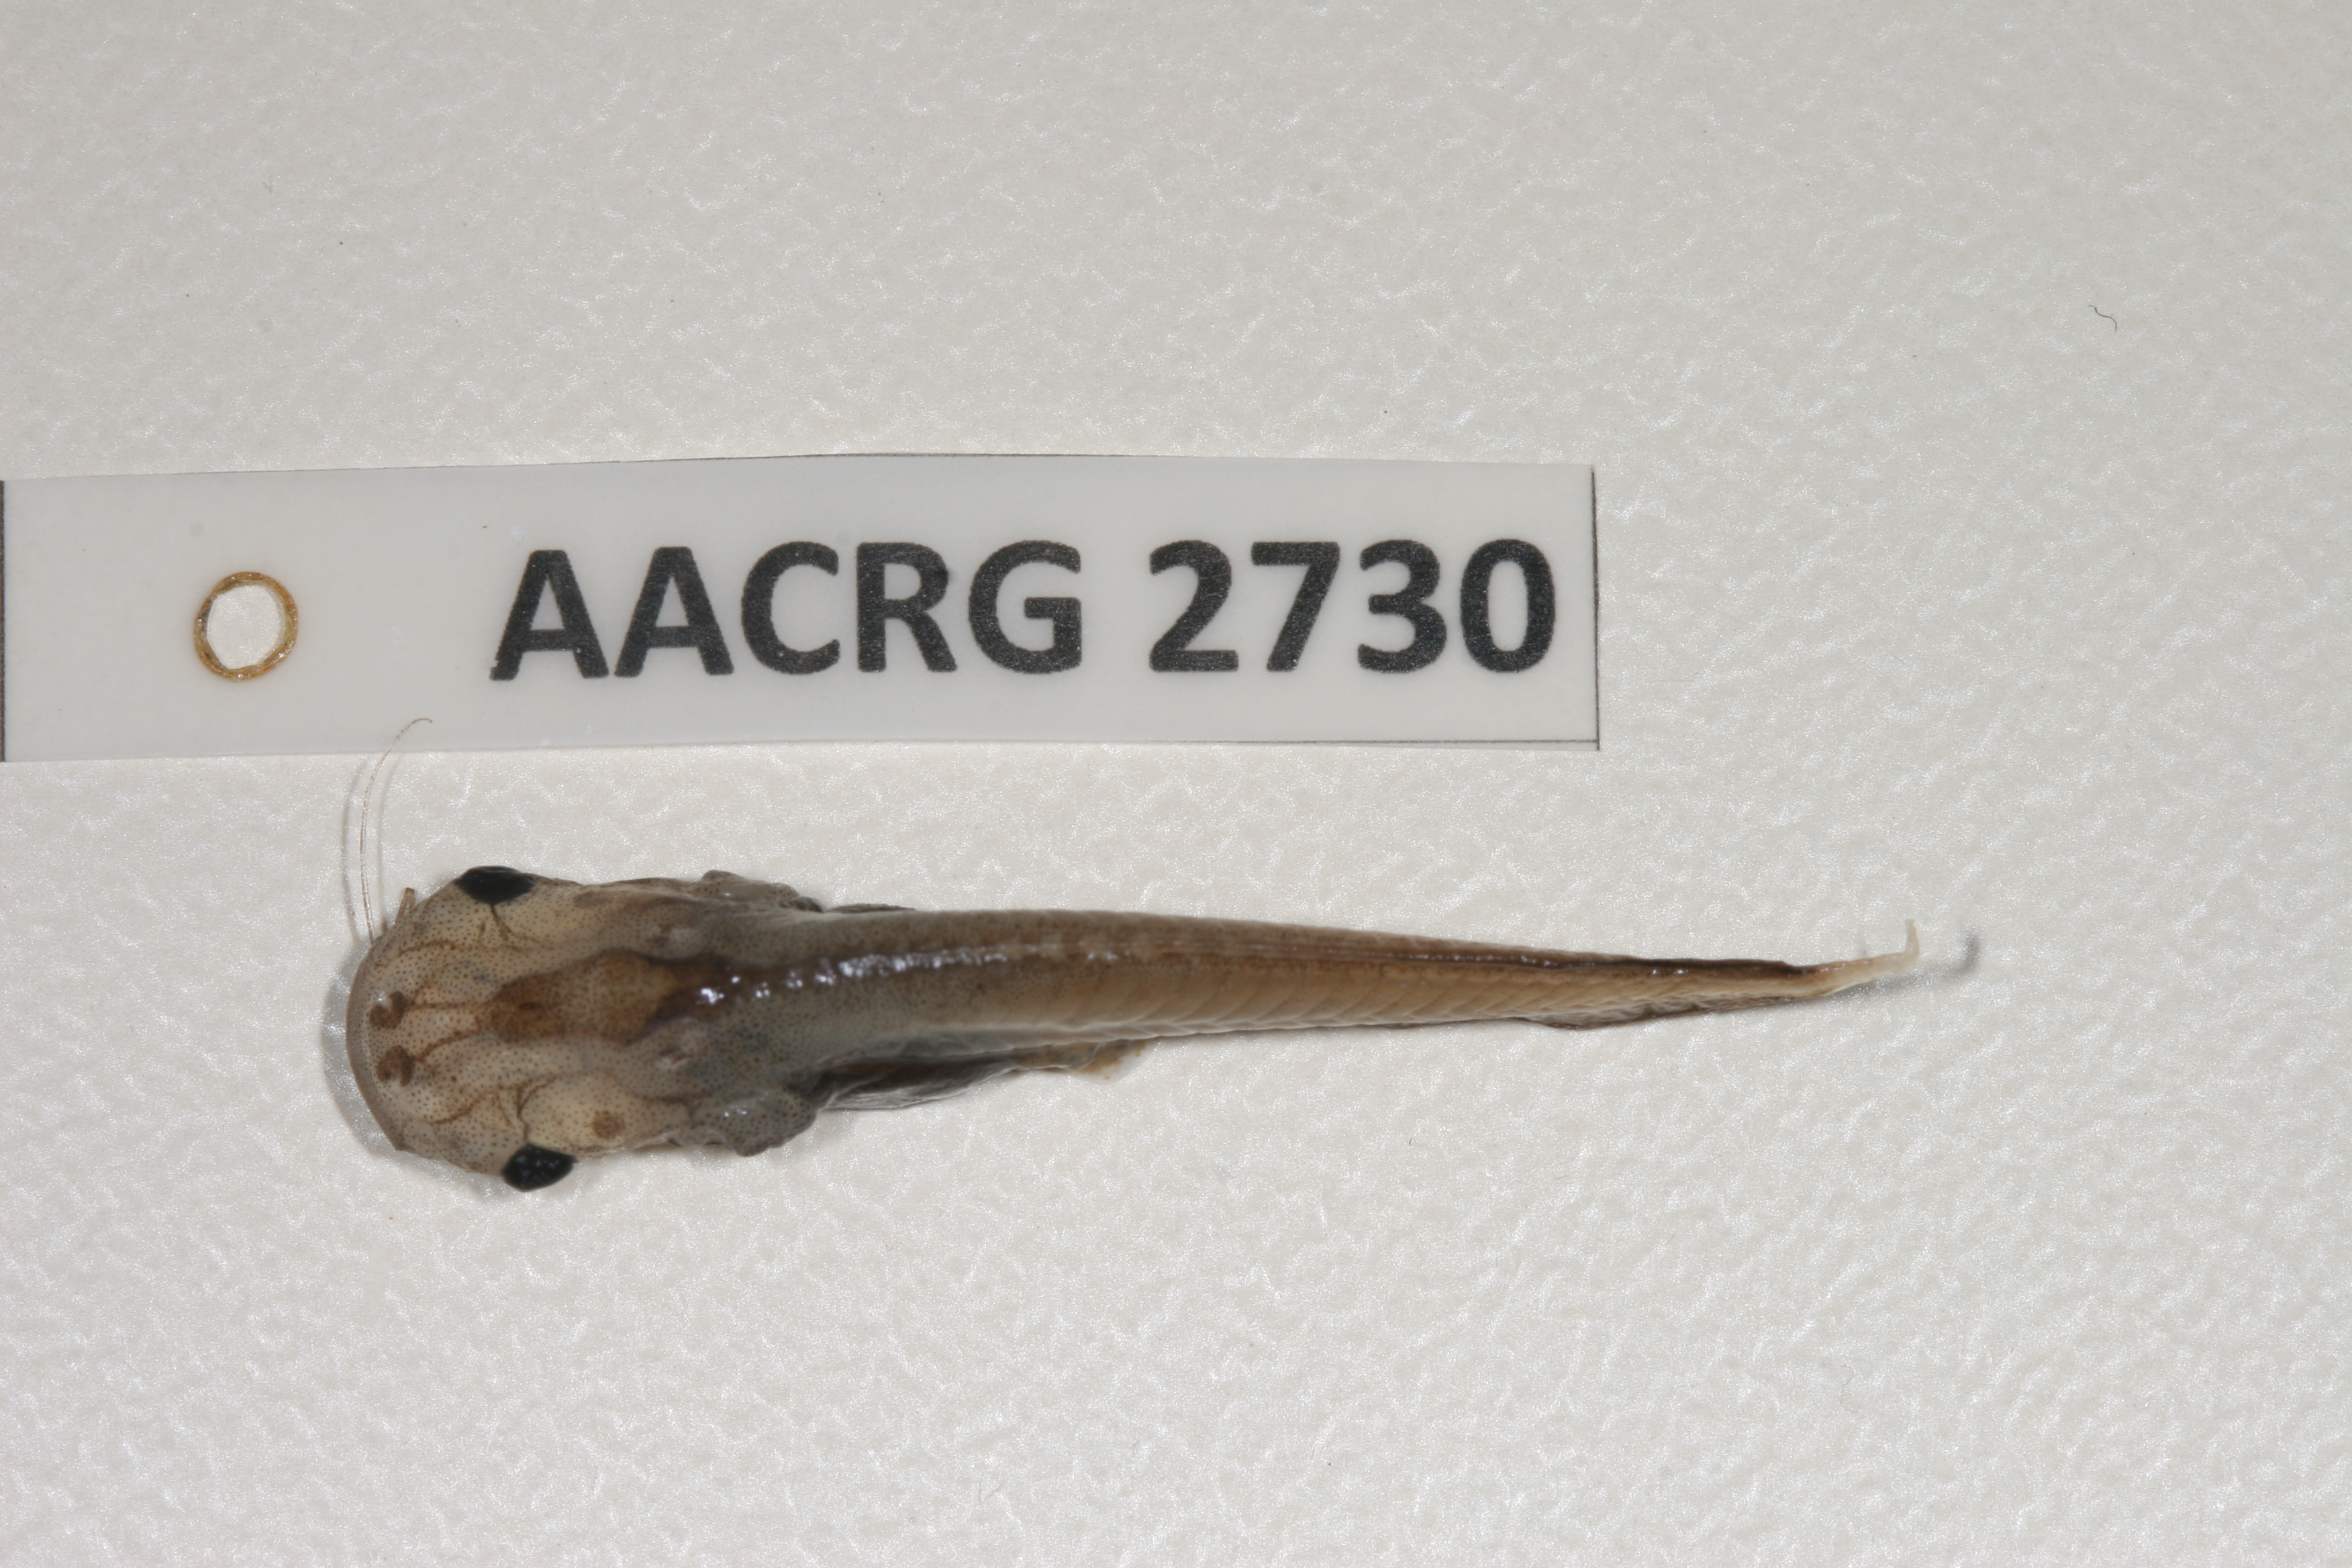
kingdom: Animalia
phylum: Chordata
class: Amphibia
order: Anura
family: Pipidae
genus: Xenopus
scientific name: Xenopus laevis
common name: African clawed frog
